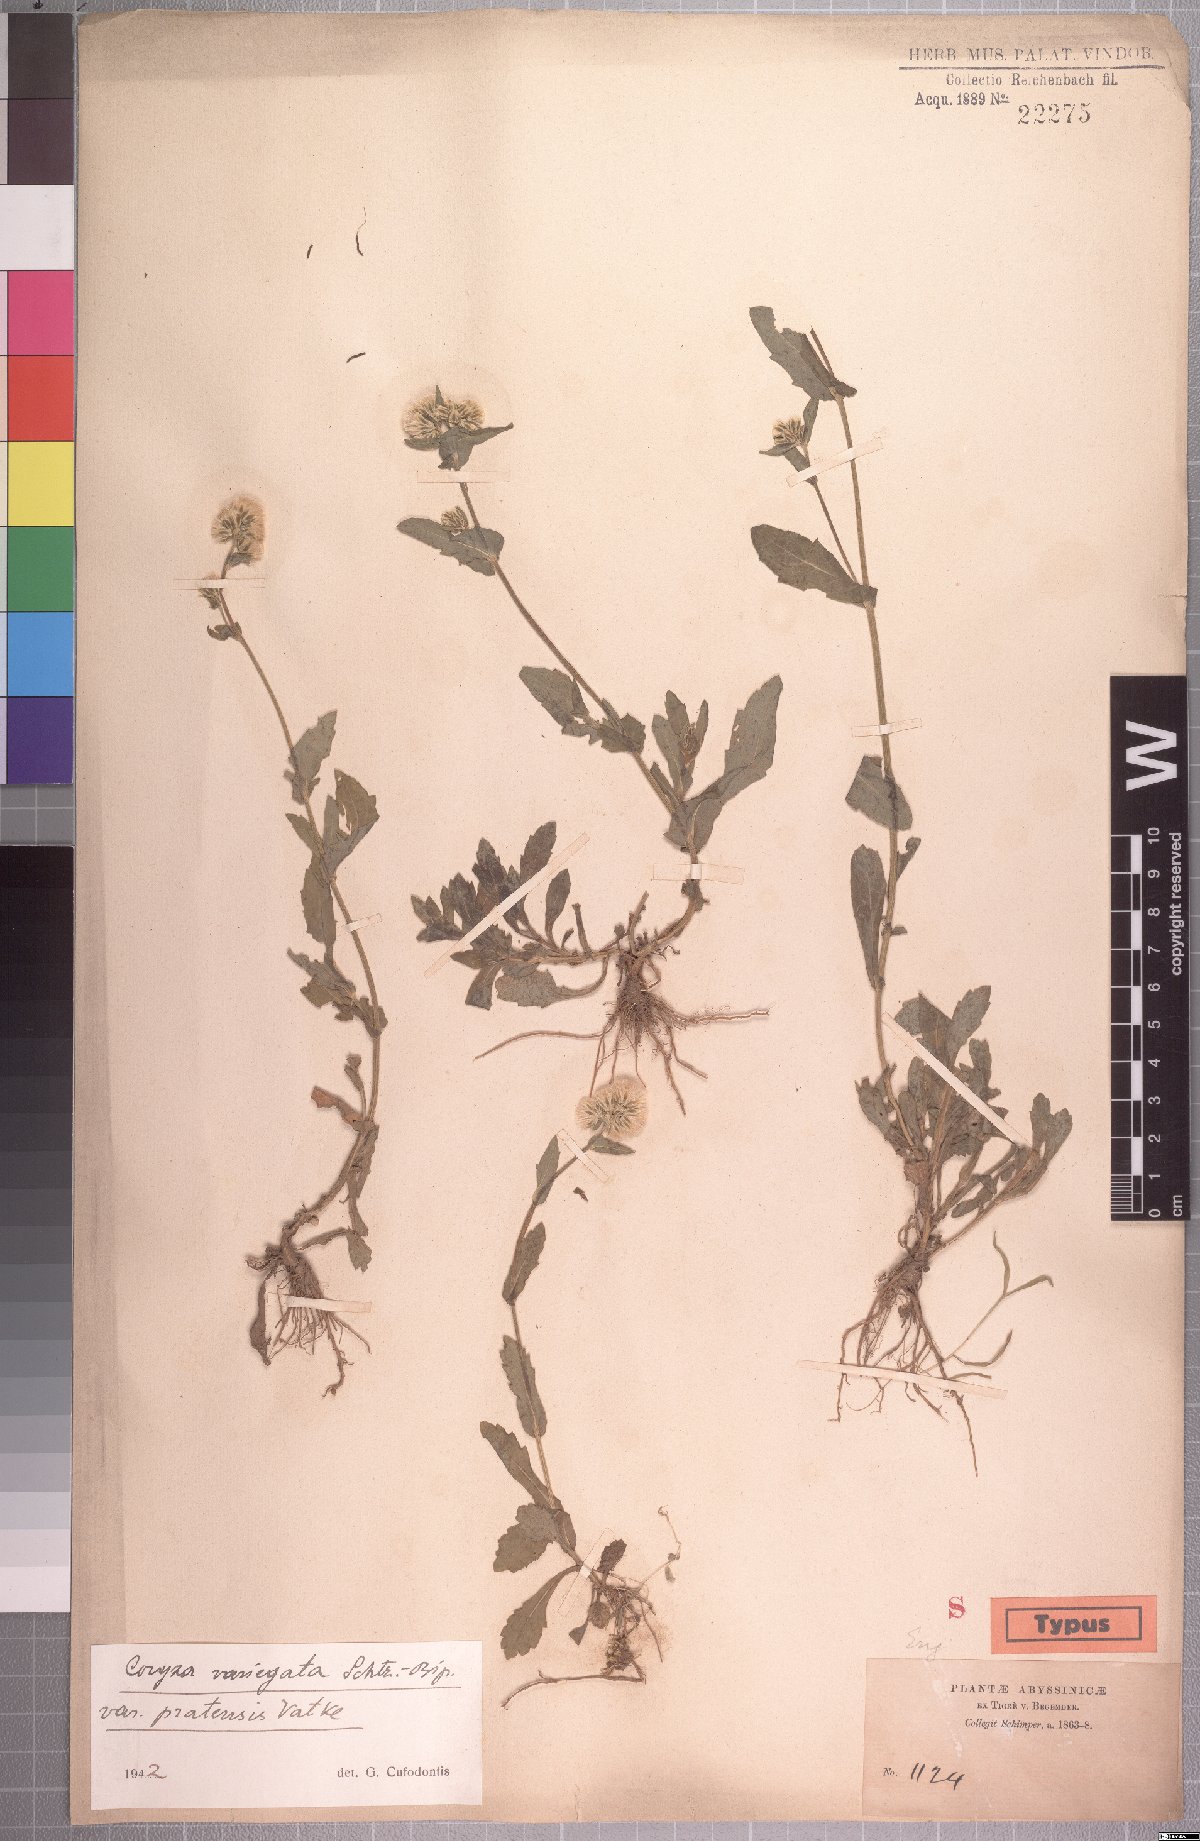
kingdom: Plantae
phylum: Tracheophyta
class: Magnoliopsida
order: Asterales
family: Asteraceae
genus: Eschenbachia
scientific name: Eschenbachia tigrensis
